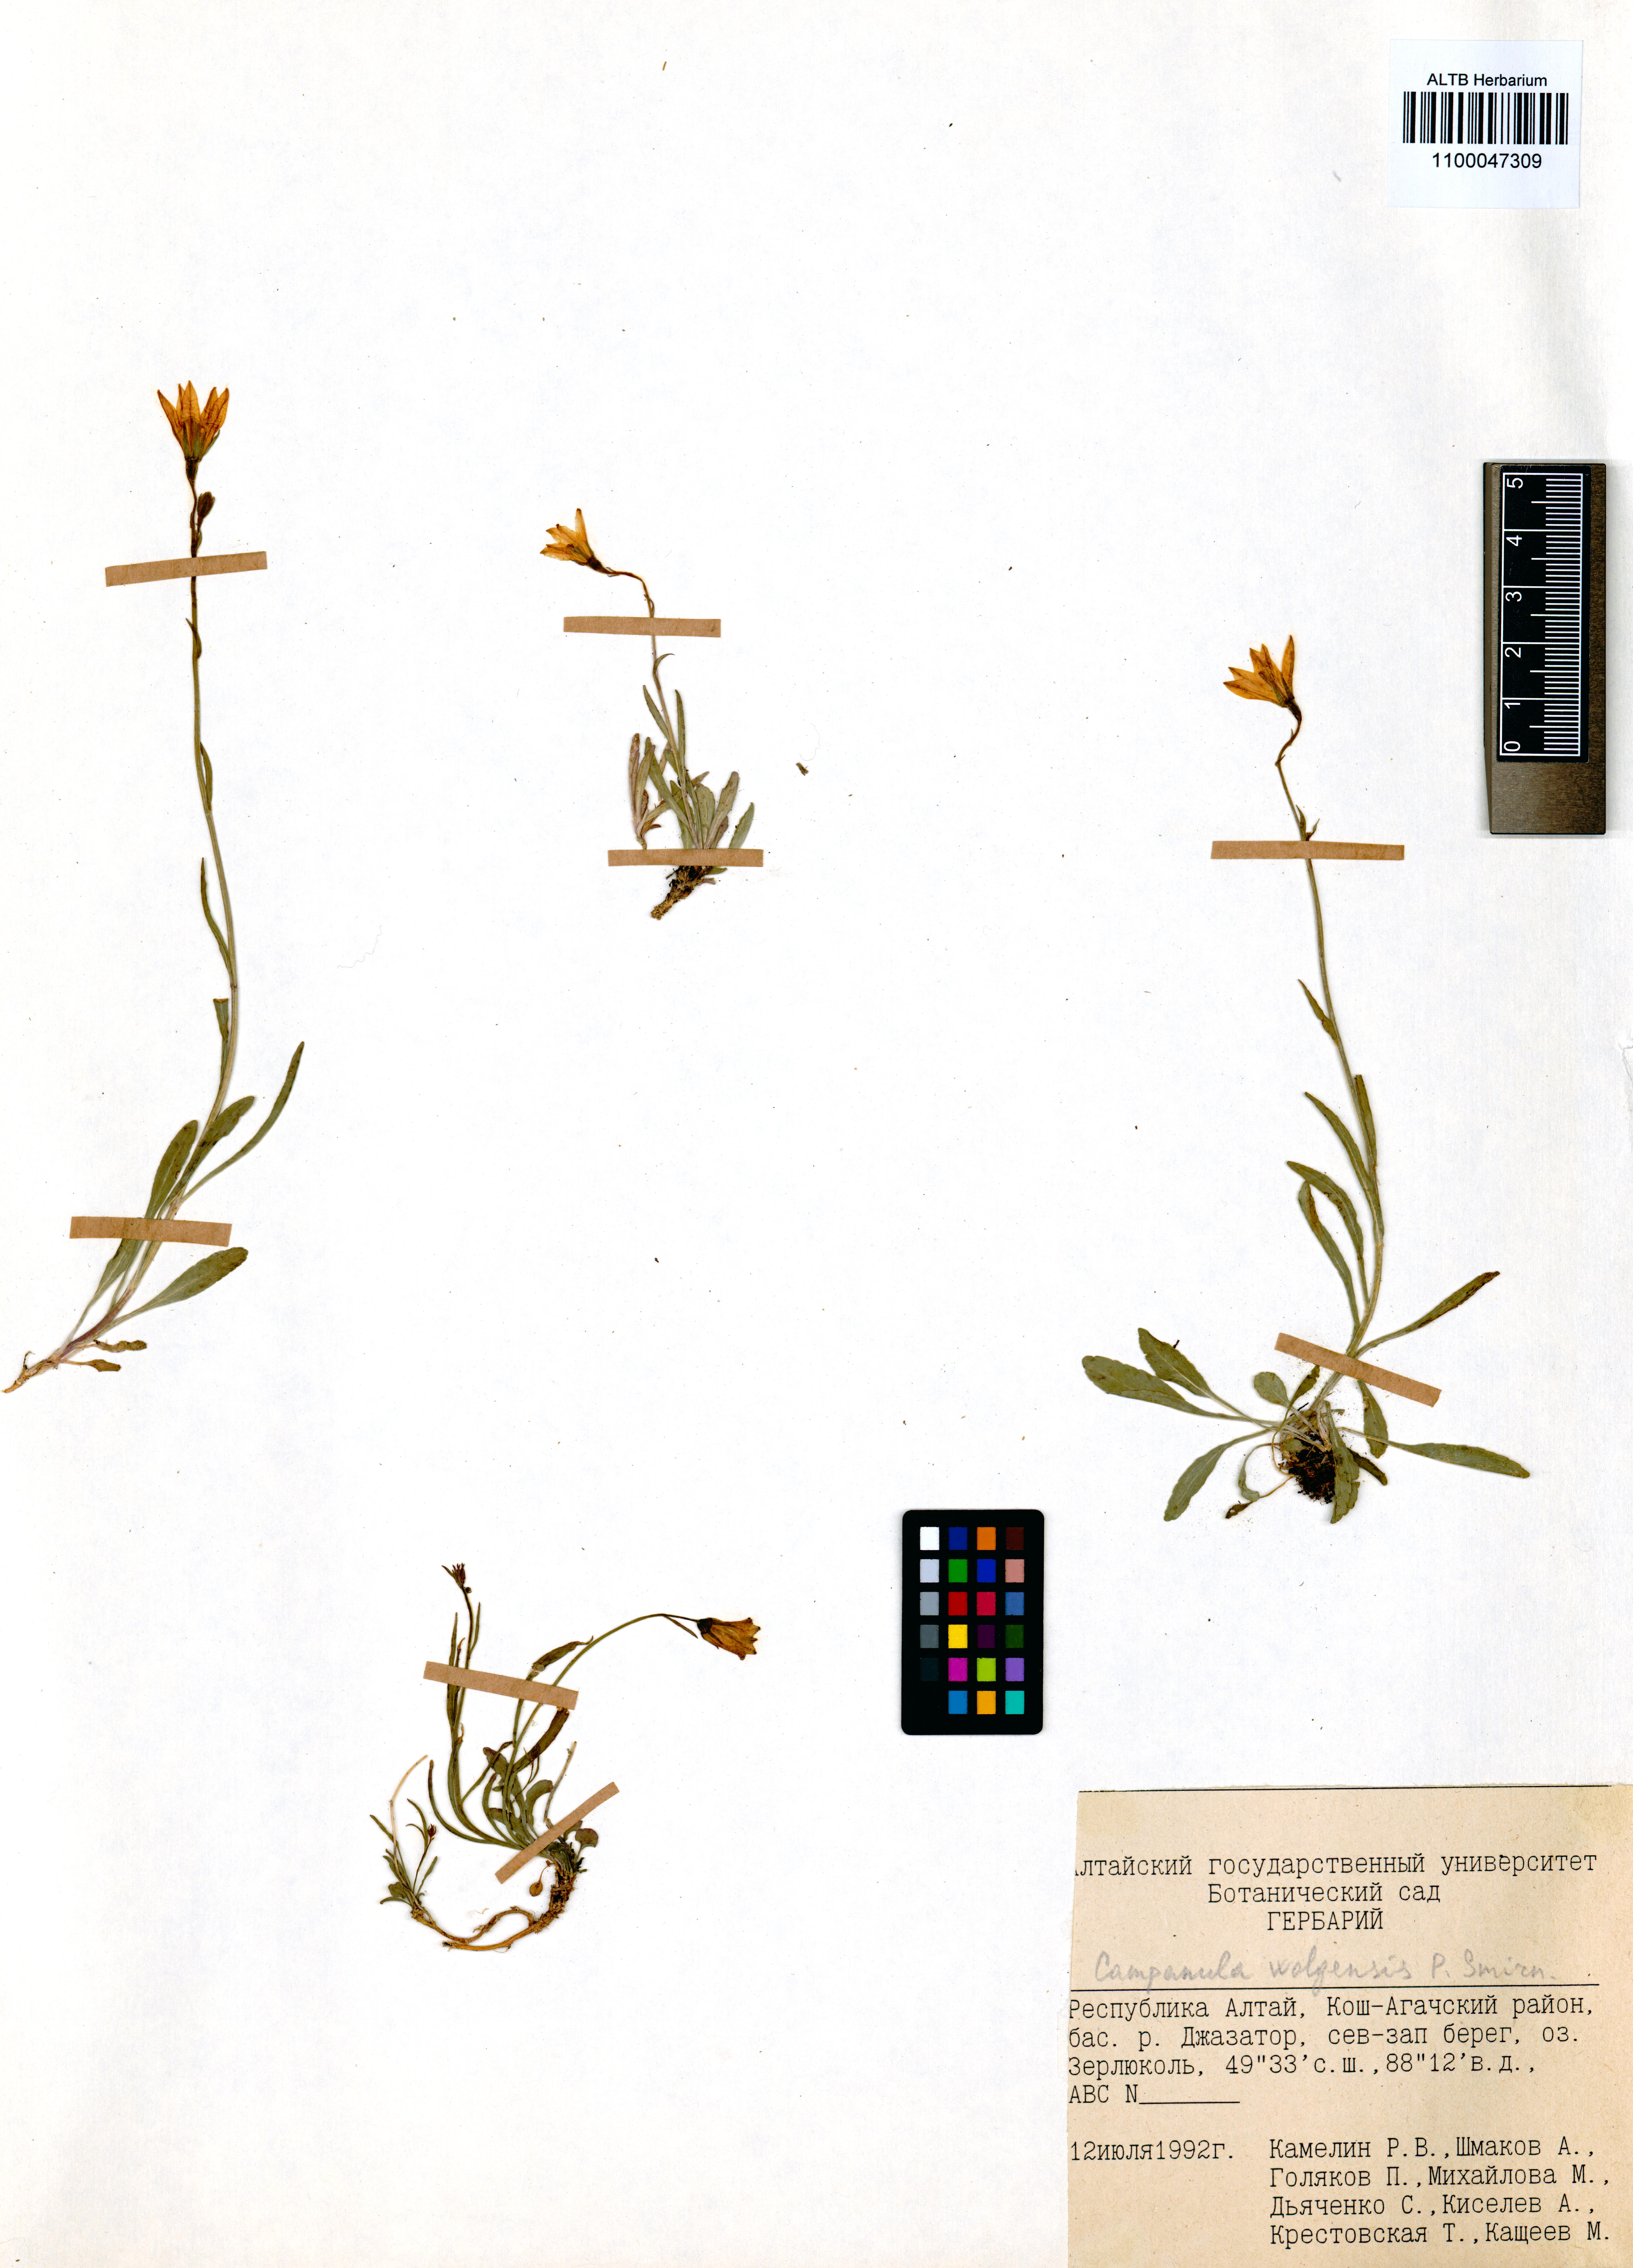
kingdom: Plantae
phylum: Tracheophyta
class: Magnoliopsida
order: Asterales
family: Campanulaceae
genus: Campanula
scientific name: Campanula stevenii
